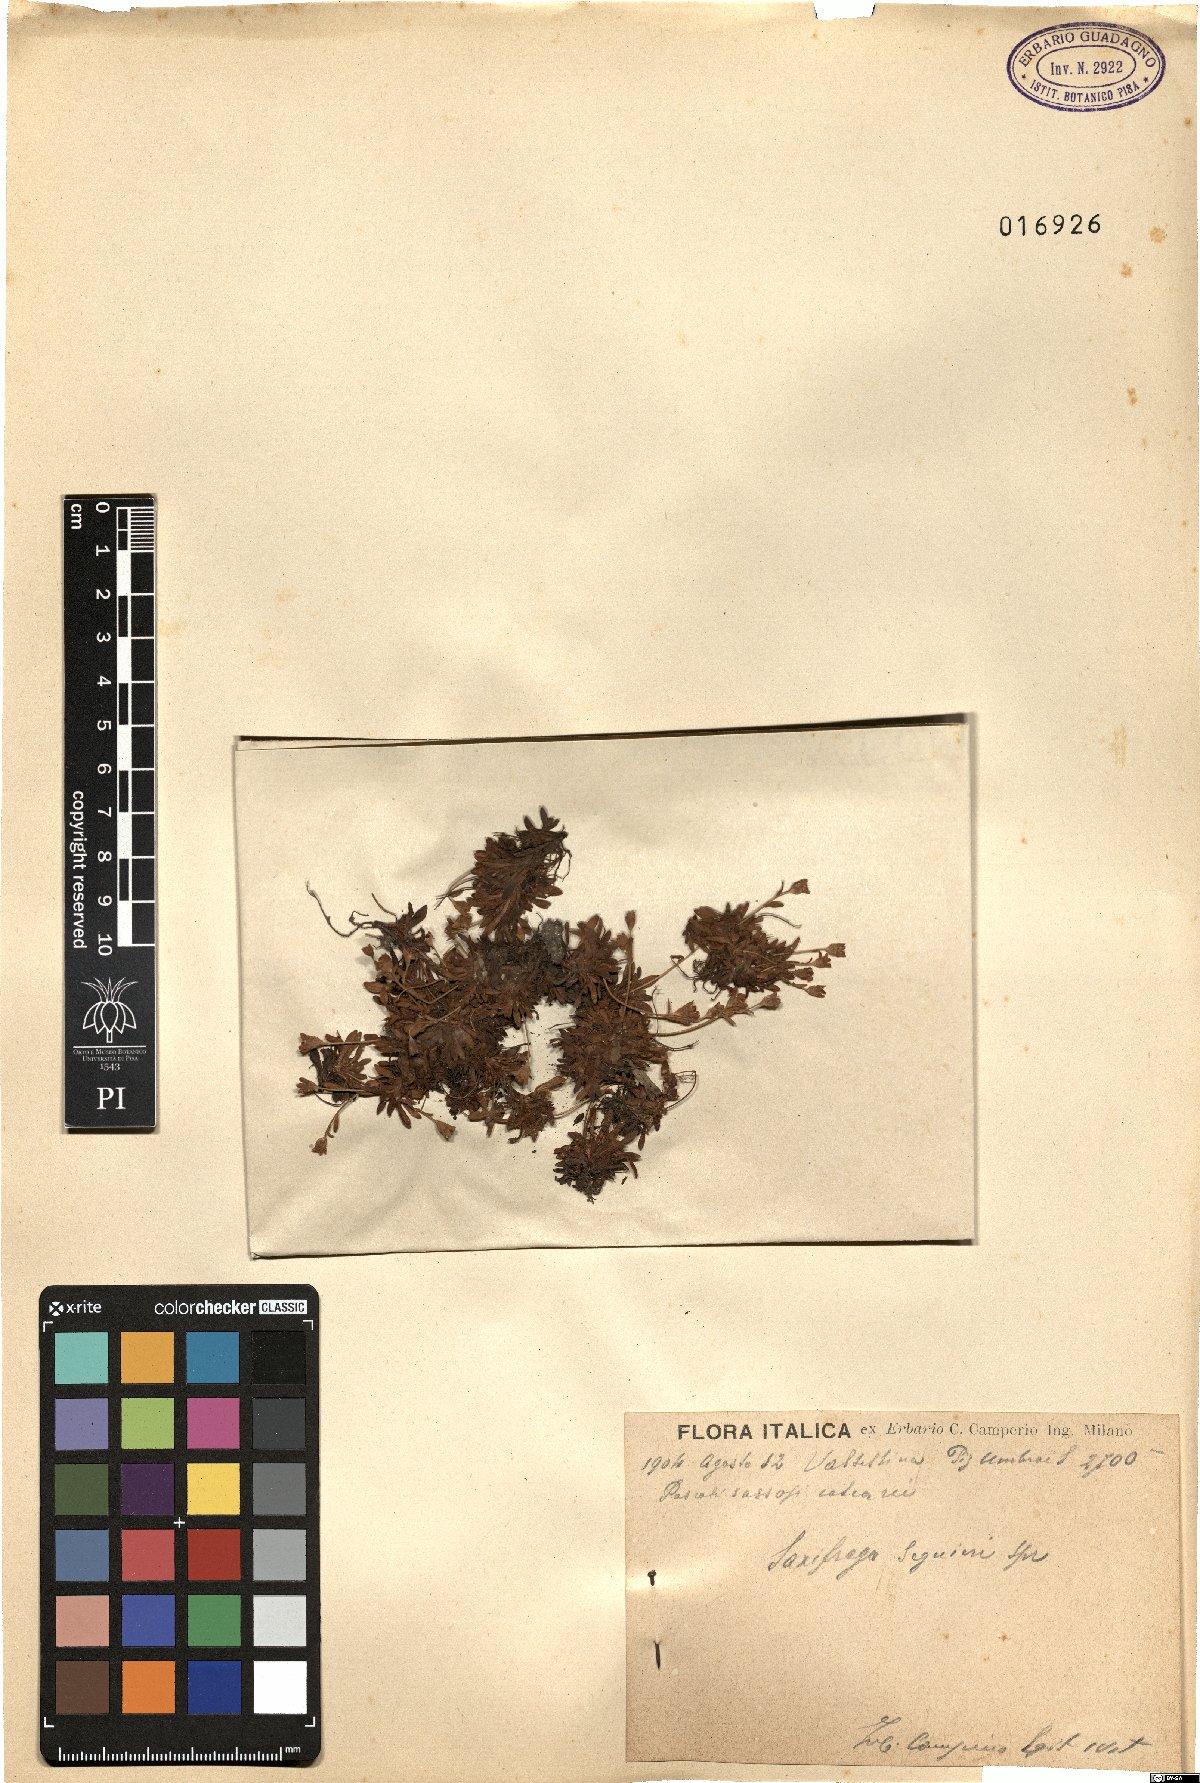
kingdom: Plantae
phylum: Tracheophyta
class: Magnoliopsida
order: Saxifragales
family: Saxifragaceae
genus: Saxifraga
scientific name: Saxifraga seguieri
